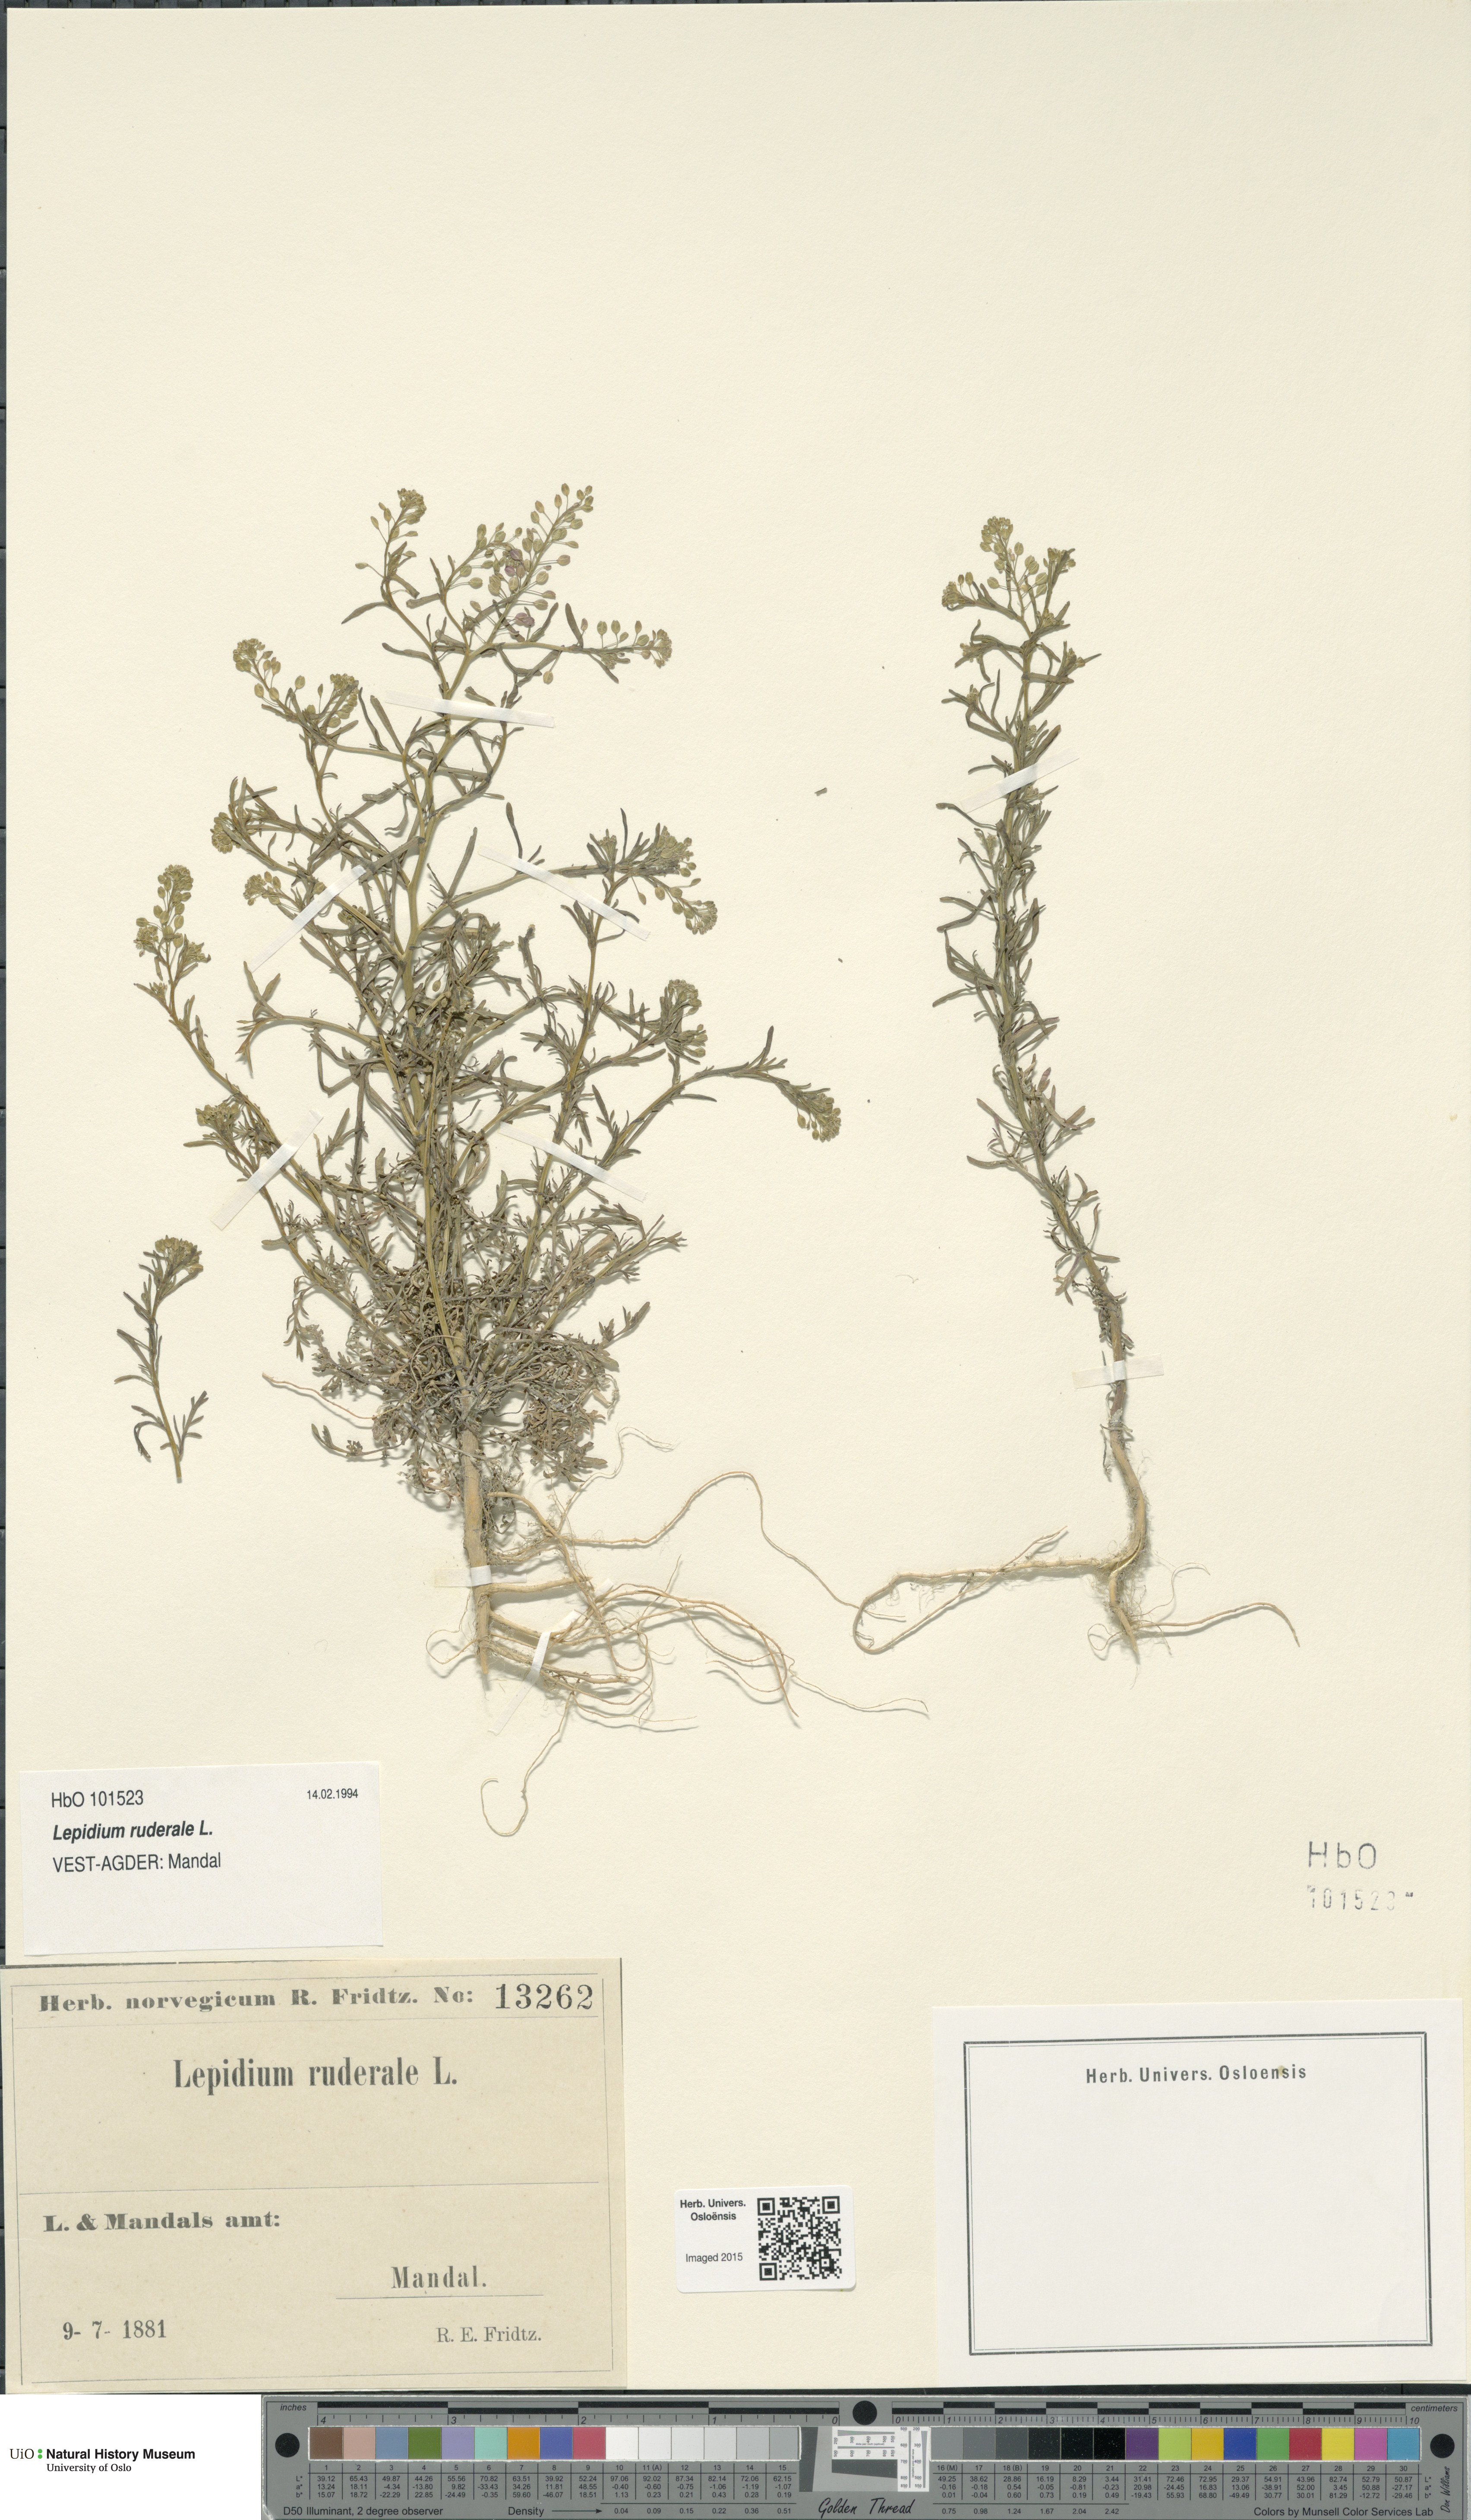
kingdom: Plantae
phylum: Tracheophyta
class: Magnoliopsida
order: Brassicales
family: Brassicaceae
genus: Lepidium
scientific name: Lepidium ruderale
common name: Narrow-leaved pepperwort
